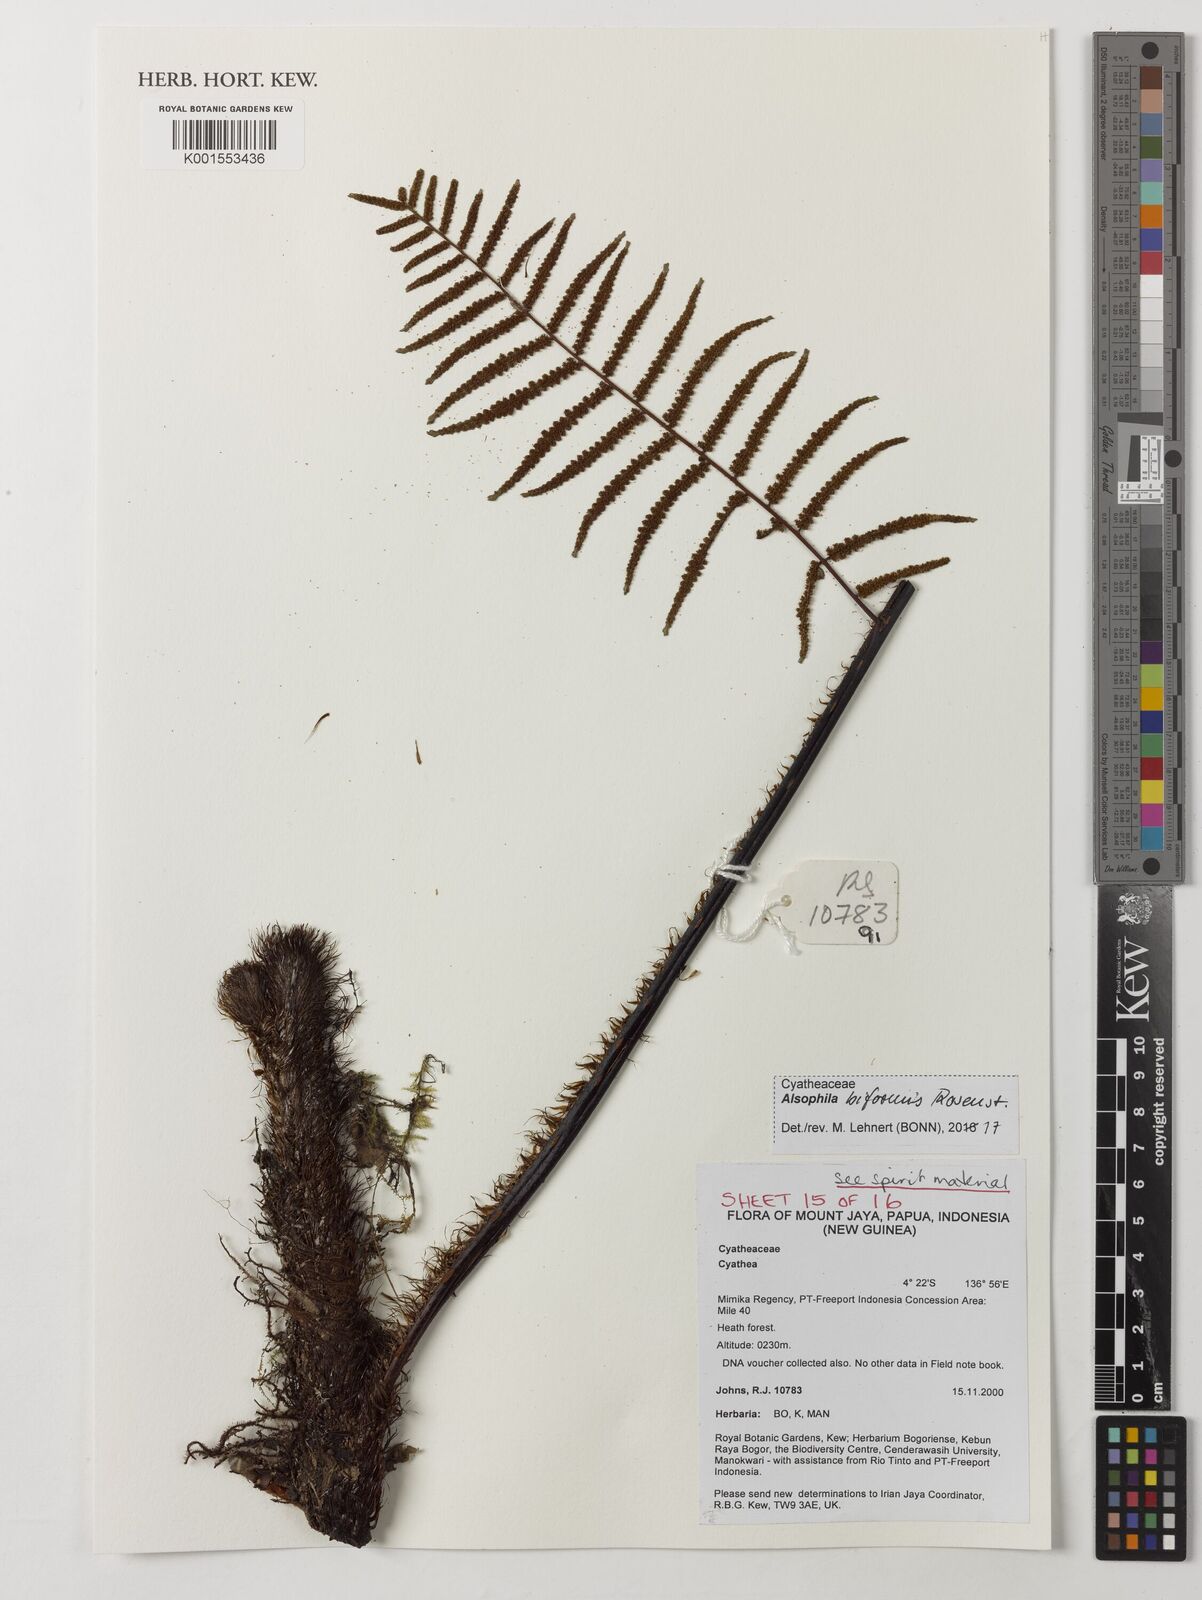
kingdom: Plantae
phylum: Tracheophyta
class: Polypodiopsida
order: Cyatheales
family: Cyatheaceae
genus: Gymnosphaera
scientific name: Gymnosphaera biformis
